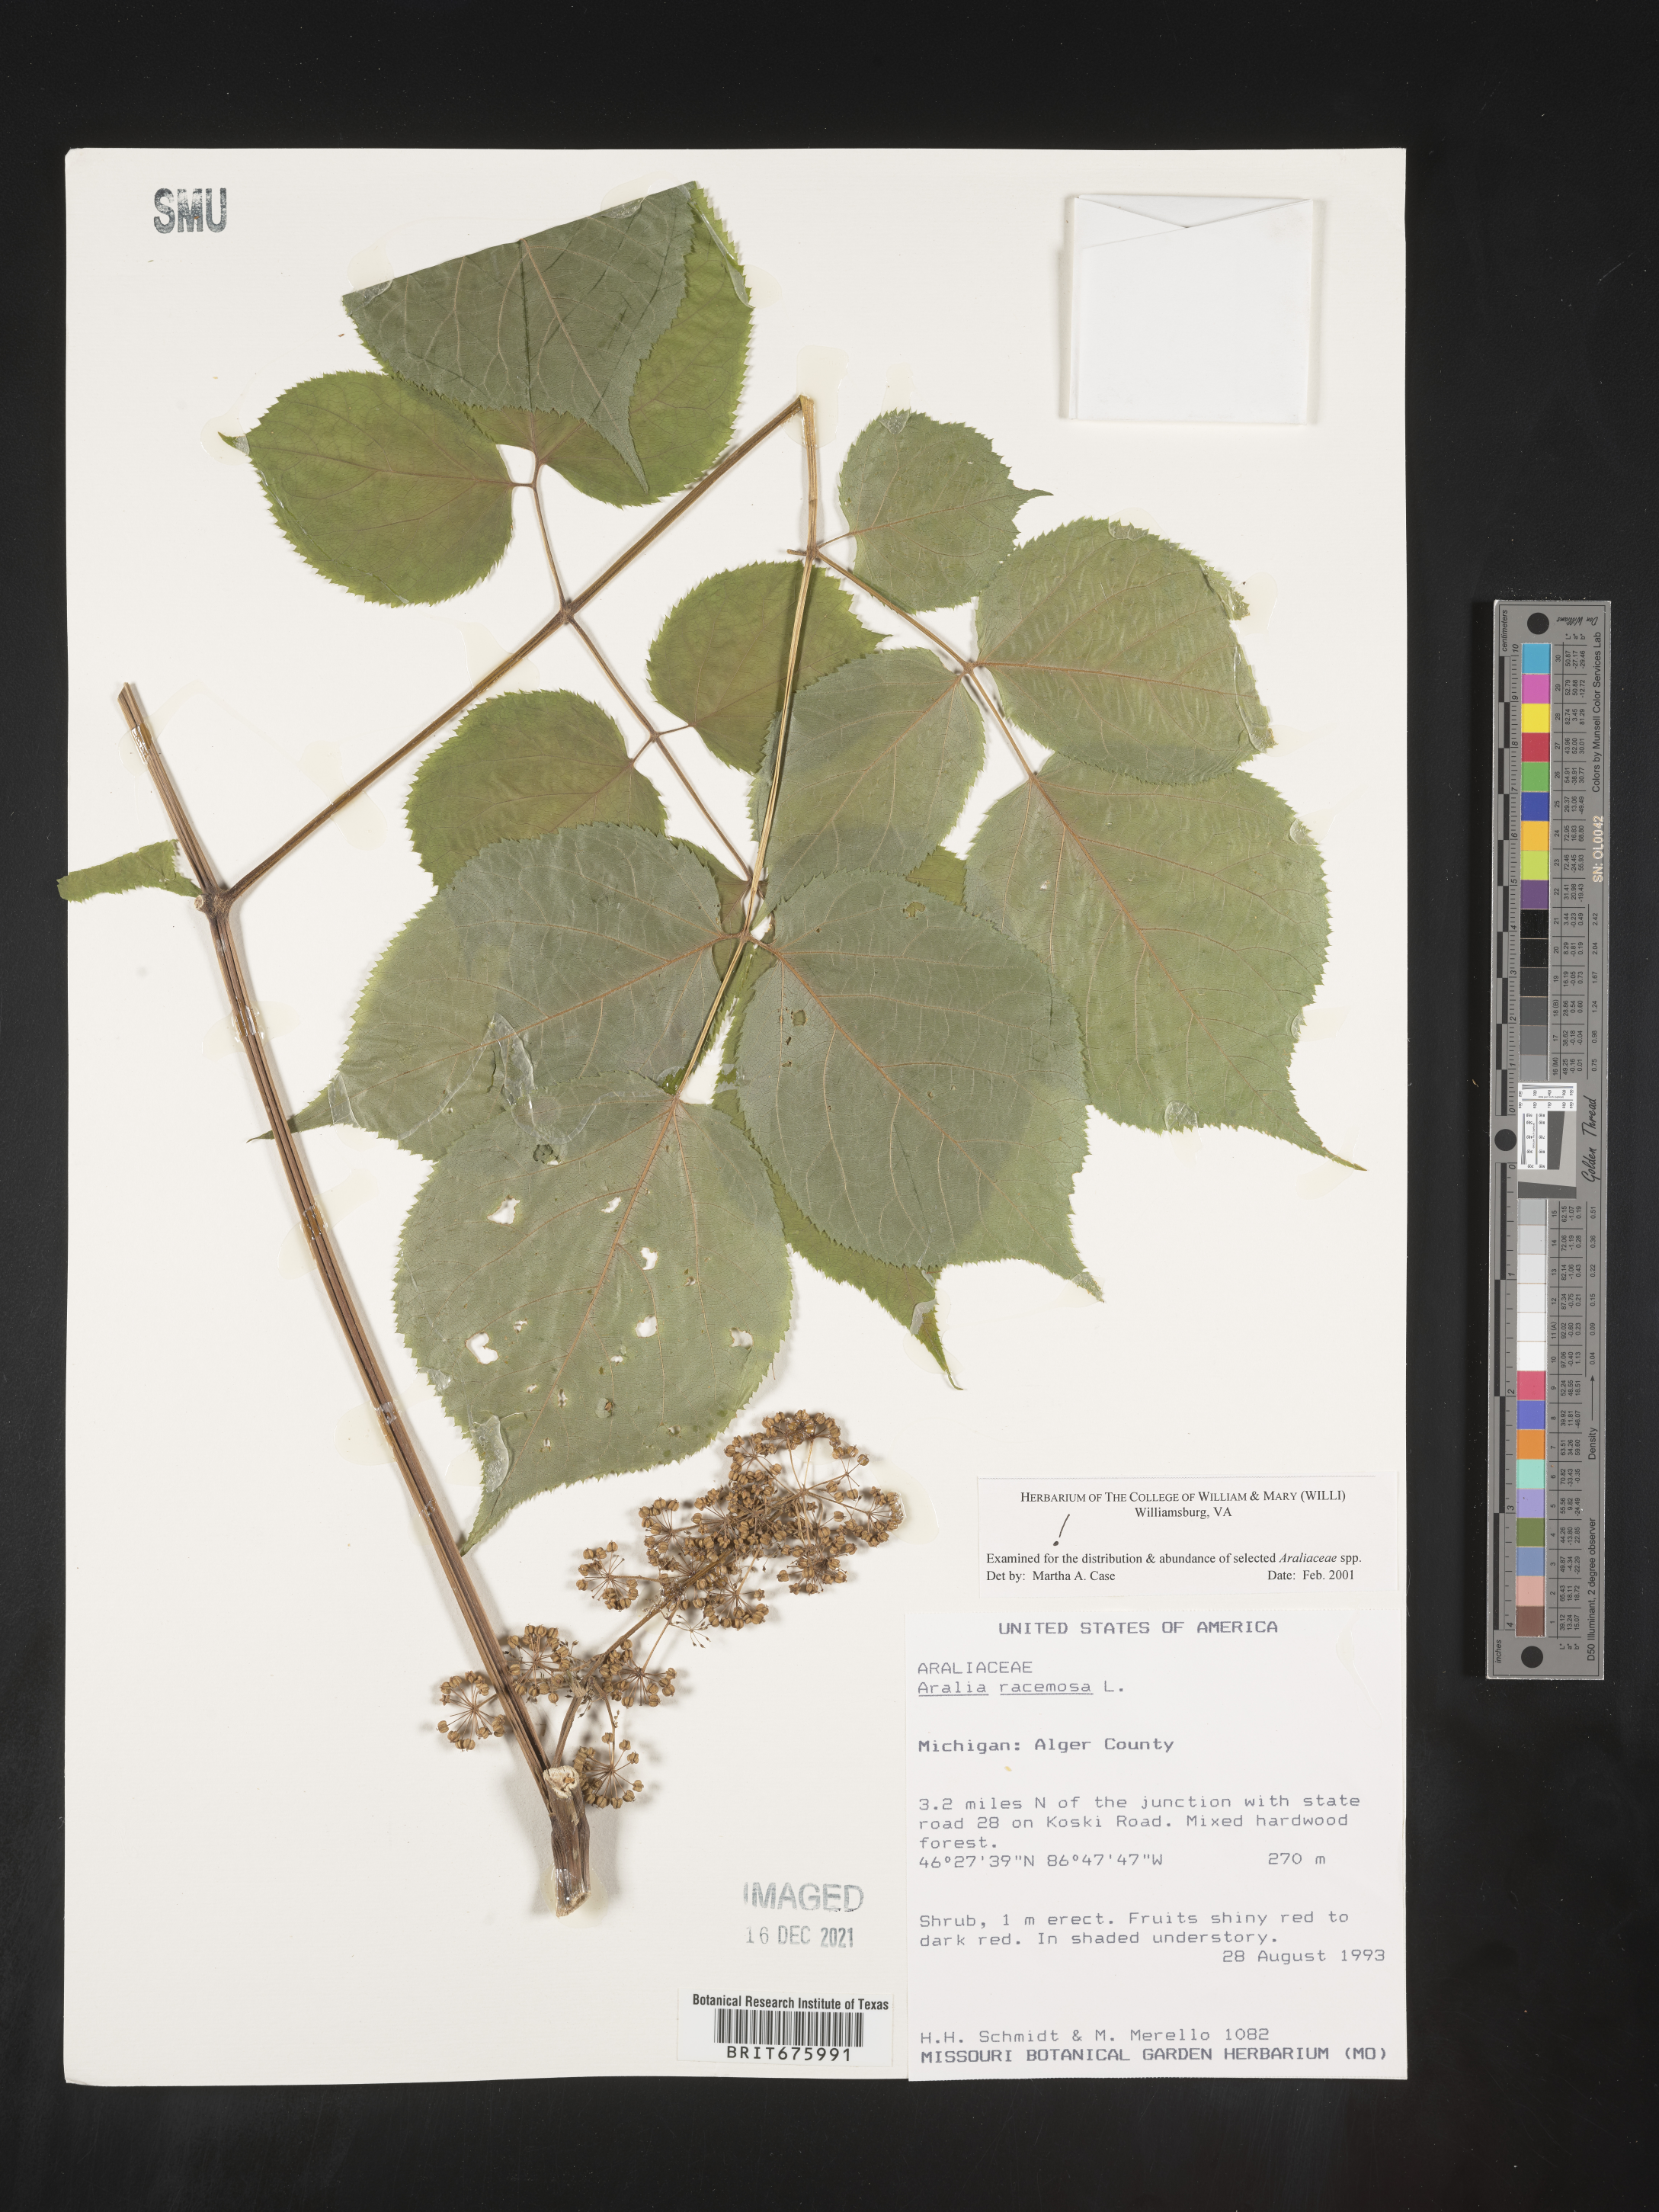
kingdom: Plantae
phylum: Tracheophyta
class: Magnoliopsida
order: Apiales
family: Araliaceae
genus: Aralia
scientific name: Aralia racemosa
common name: American-spikenard
